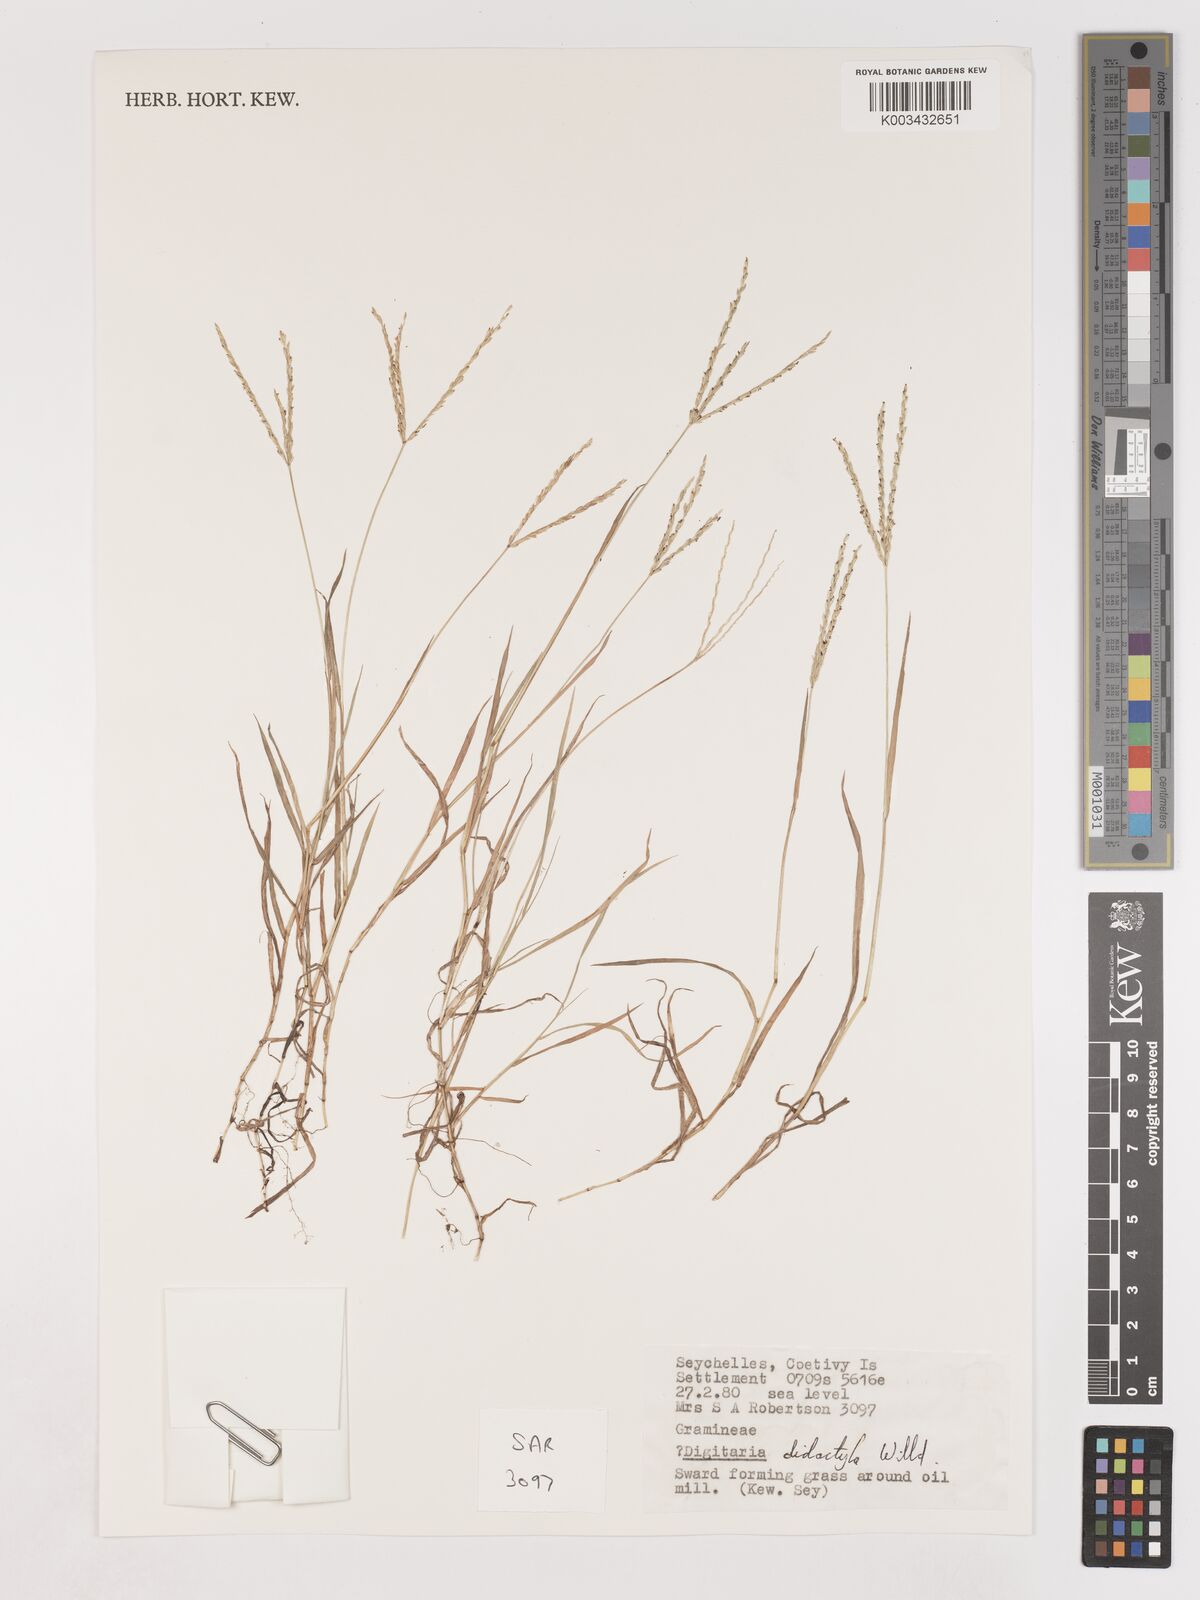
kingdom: Plantae
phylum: Tracheophyta
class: Liliopsida
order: Poales
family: Poaceae
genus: Digitaria
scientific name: Digitaria didactyla
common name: Blue couch
